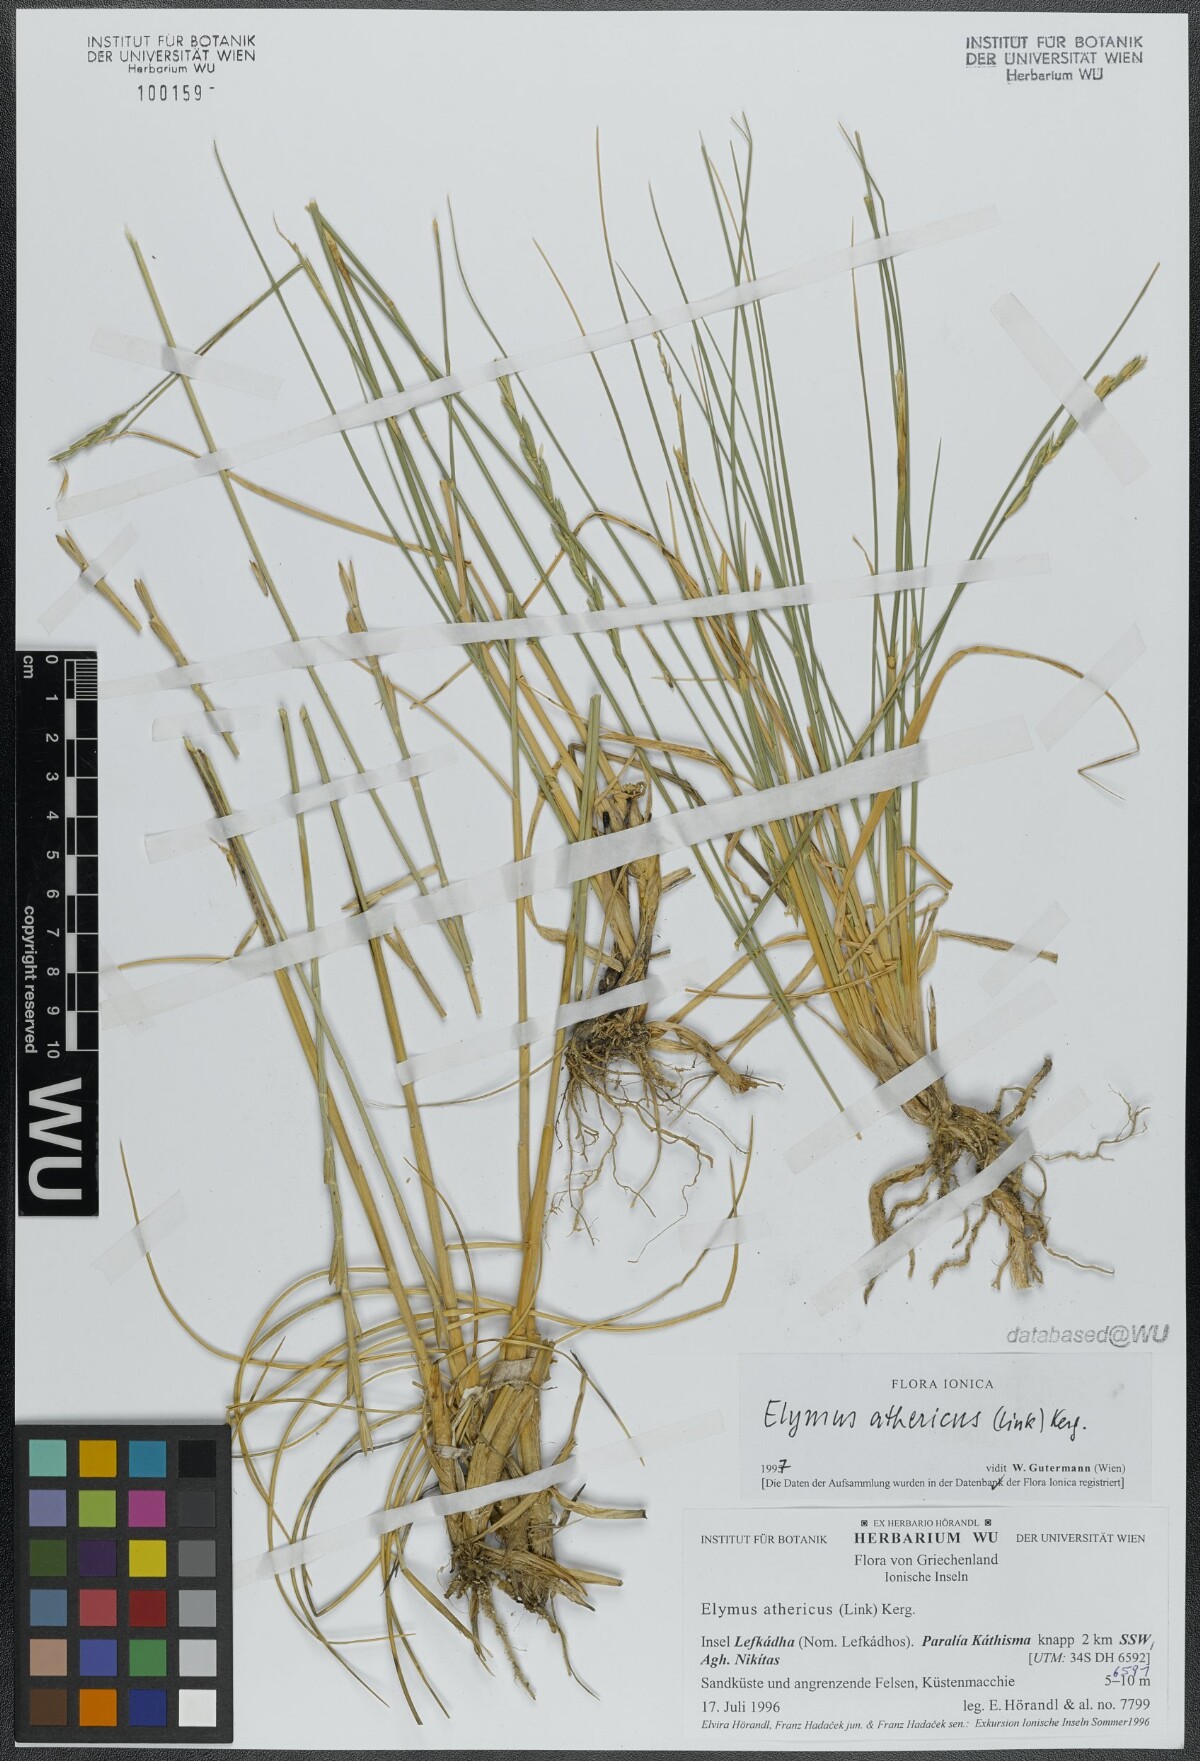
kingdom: Plantae
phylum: Tracheophyta
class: Liliopsida
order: Poales
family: Poaceae
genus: Elymus
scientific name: Elymus athericus
